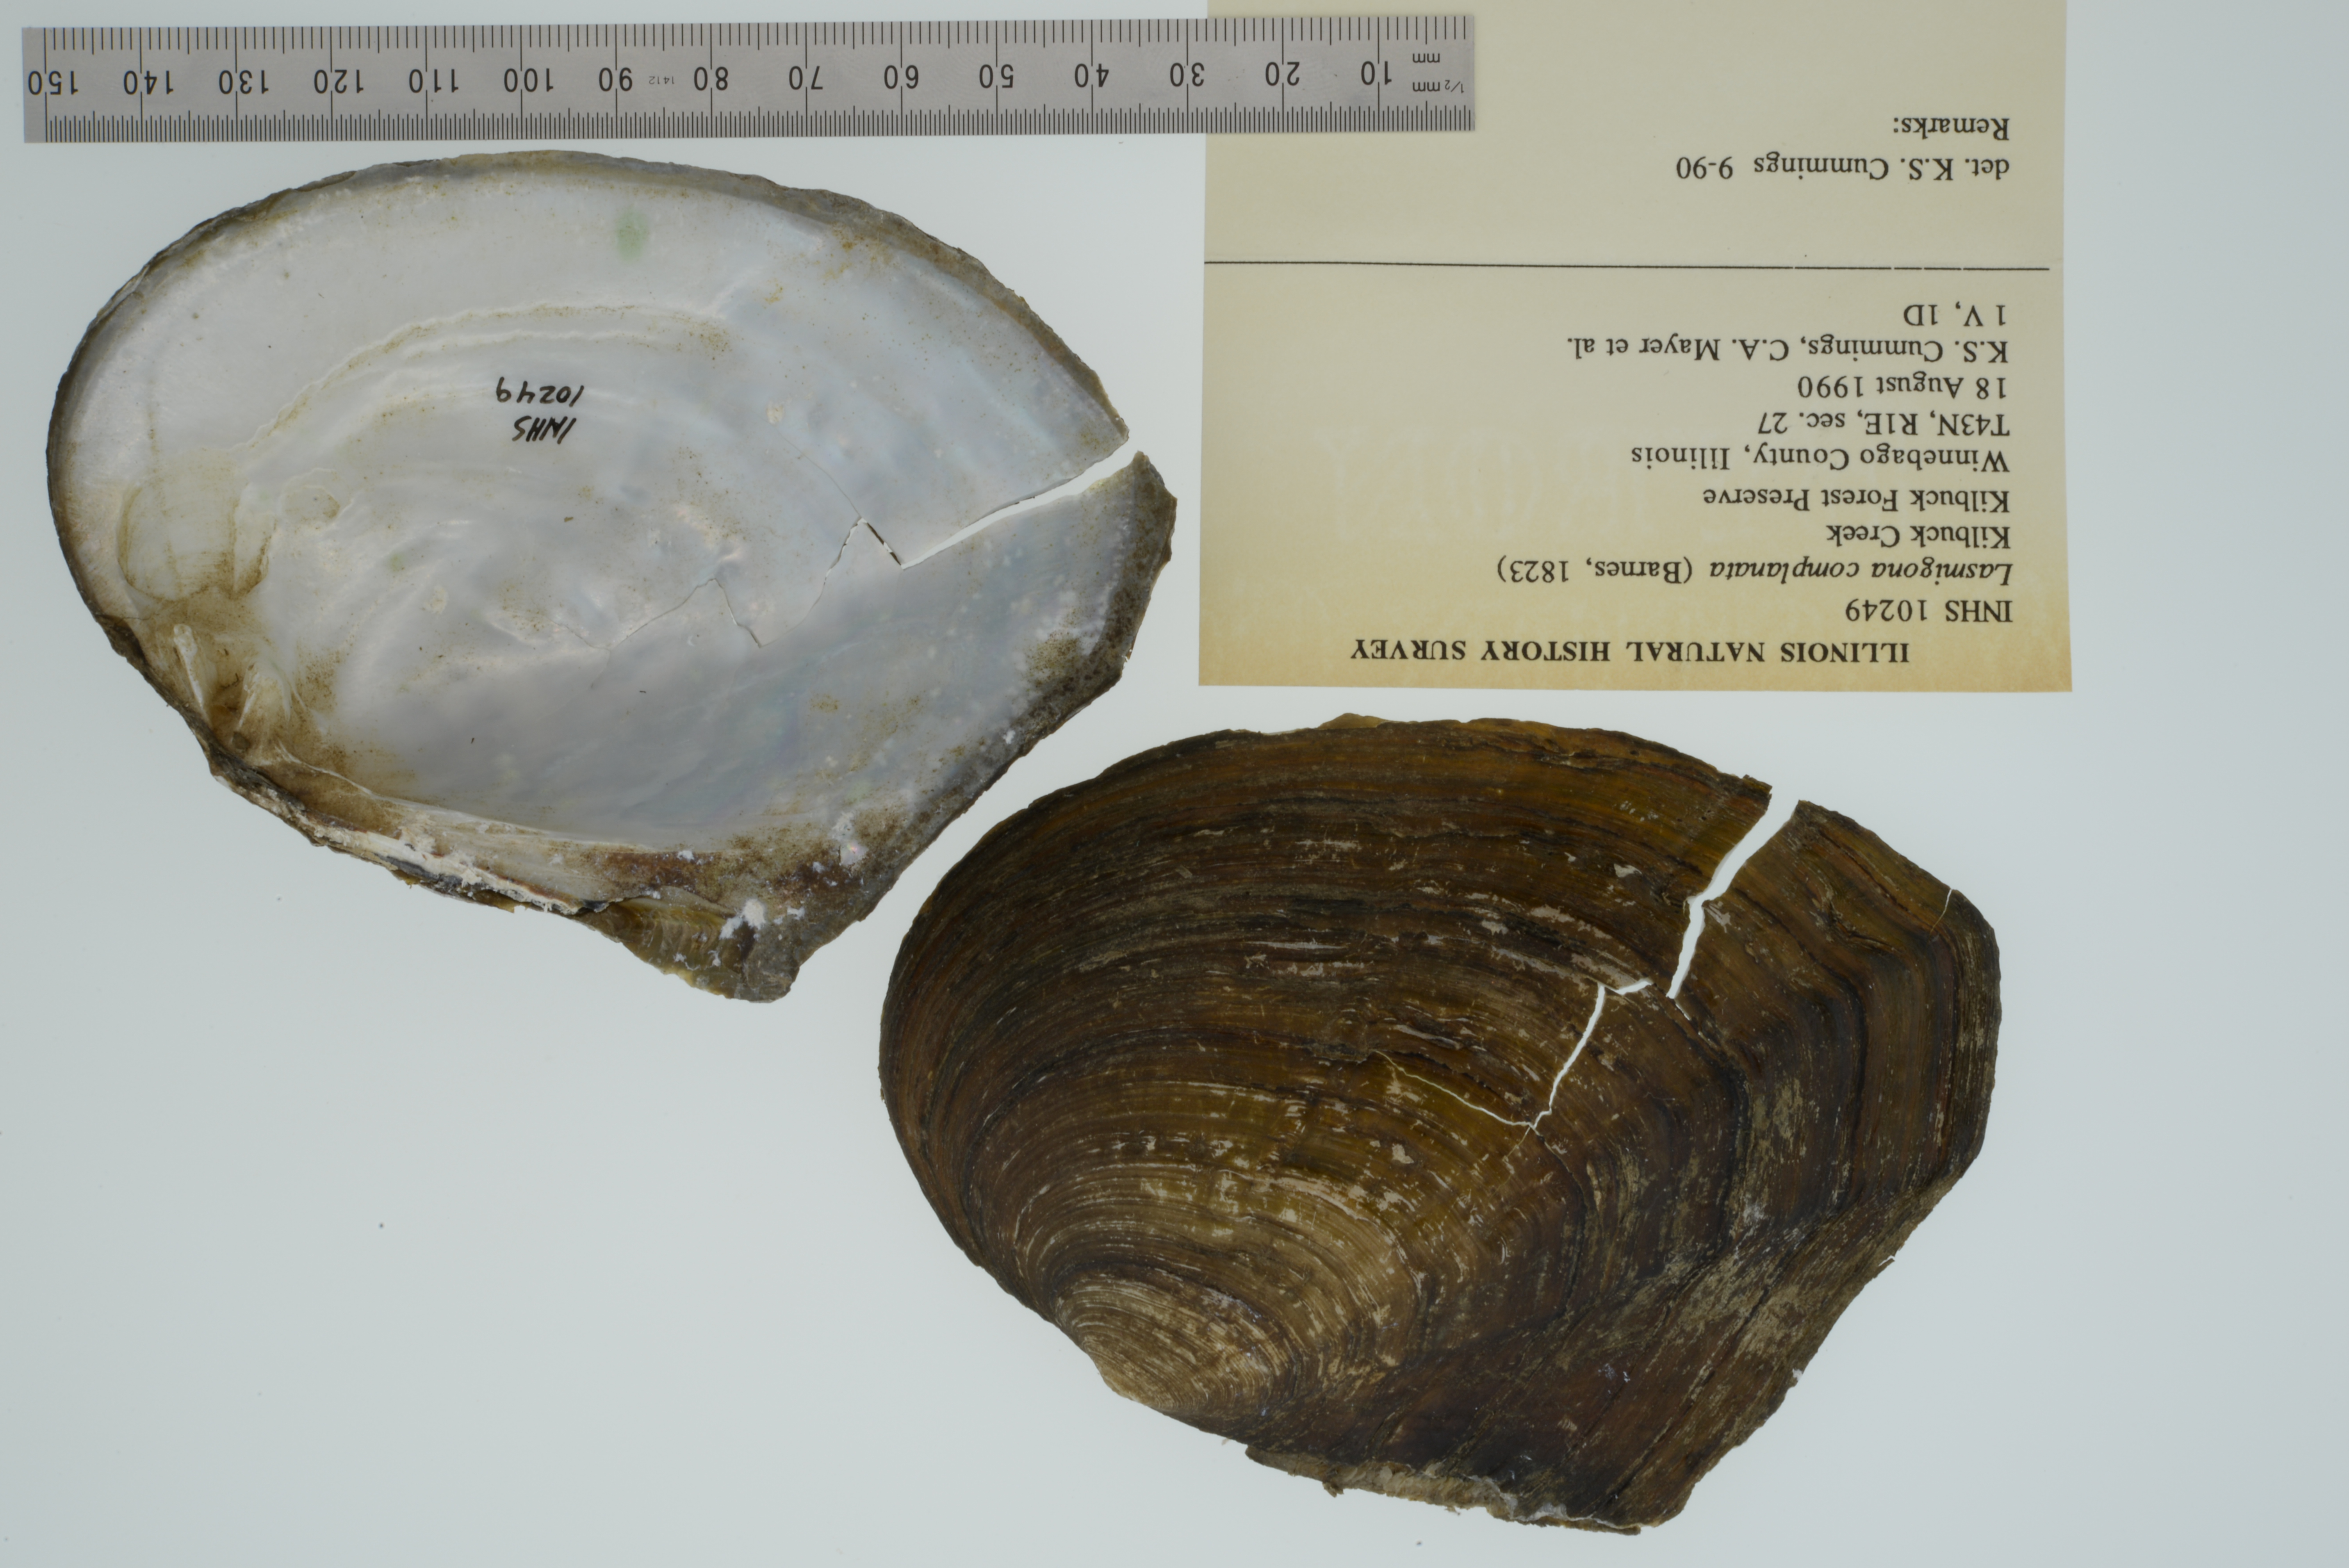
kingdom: Animalia
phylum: Mollusca
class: Bivalvia
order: Unionida
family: Unionidae
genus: Lasmigona
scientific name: Lasmigona complanata
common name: White heelsplitter
